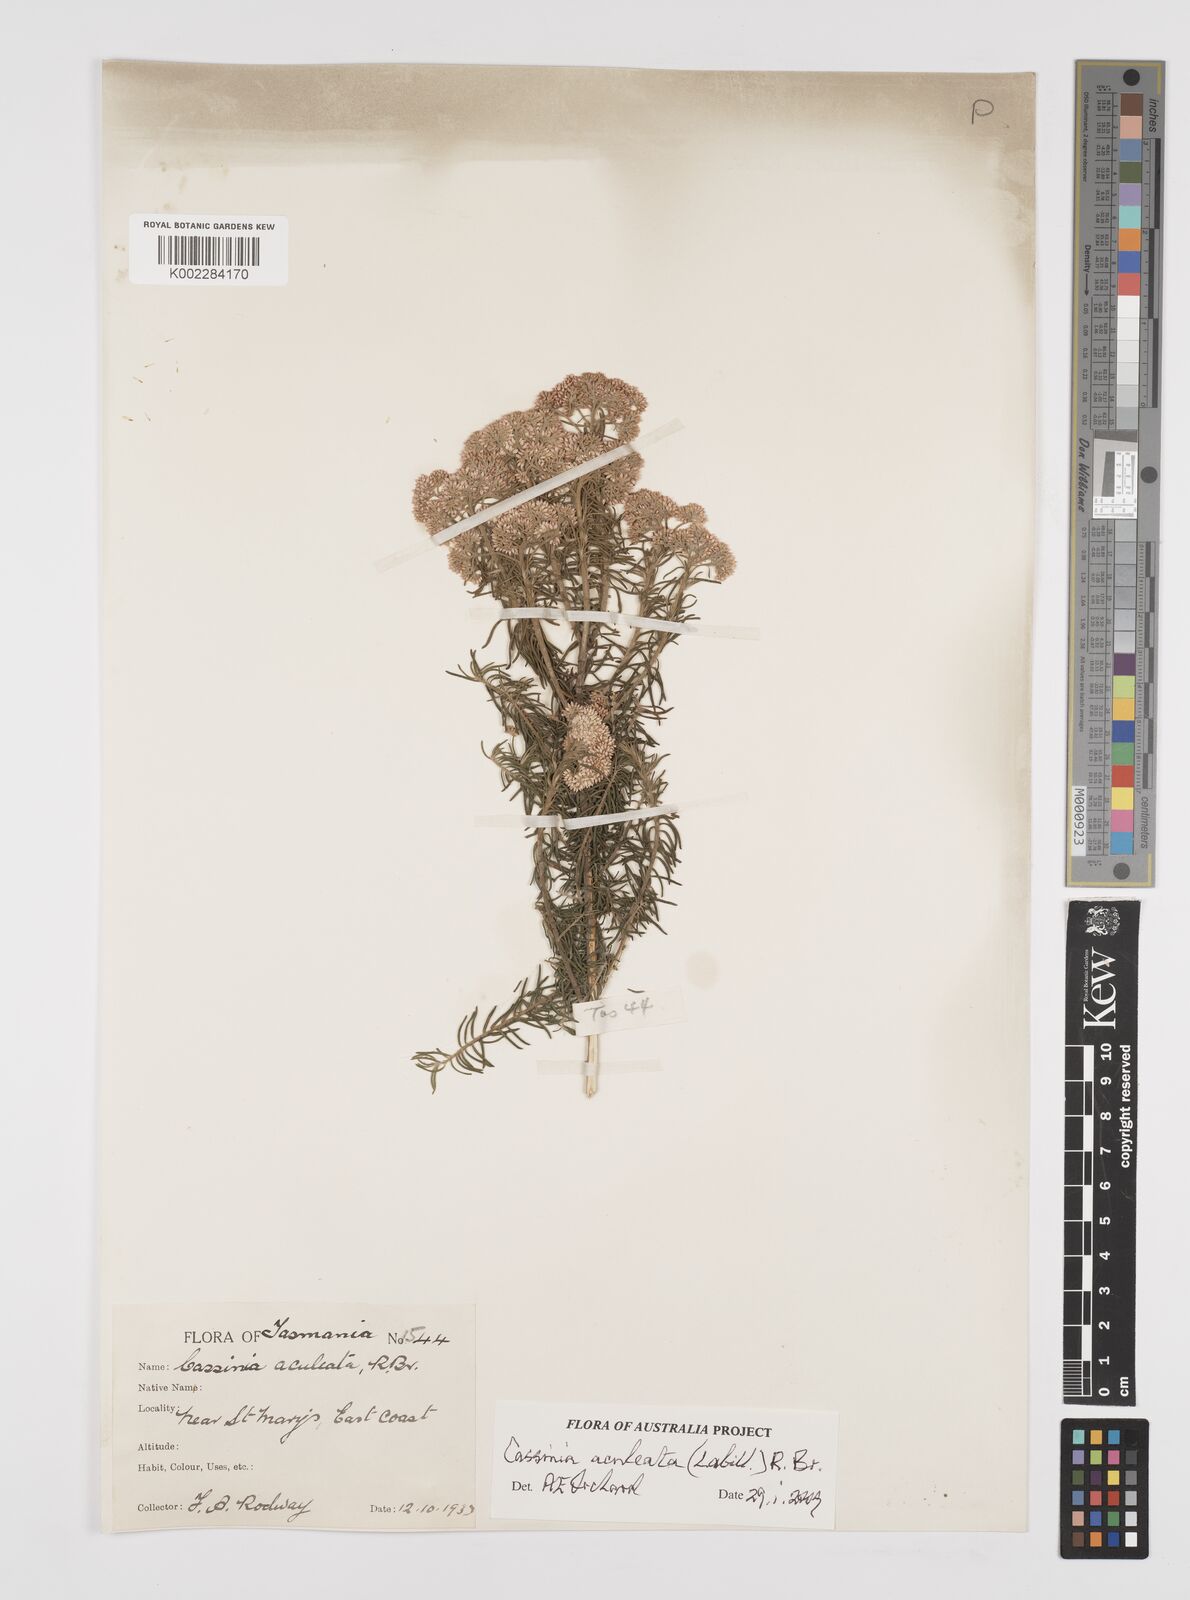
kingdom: Plantae
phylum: Tracheophyta
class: Magnoliopsida
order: Asterales
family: Asteraceae
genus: Cassinia
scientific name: Cassinia aculeata
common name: Australian tauhinu
